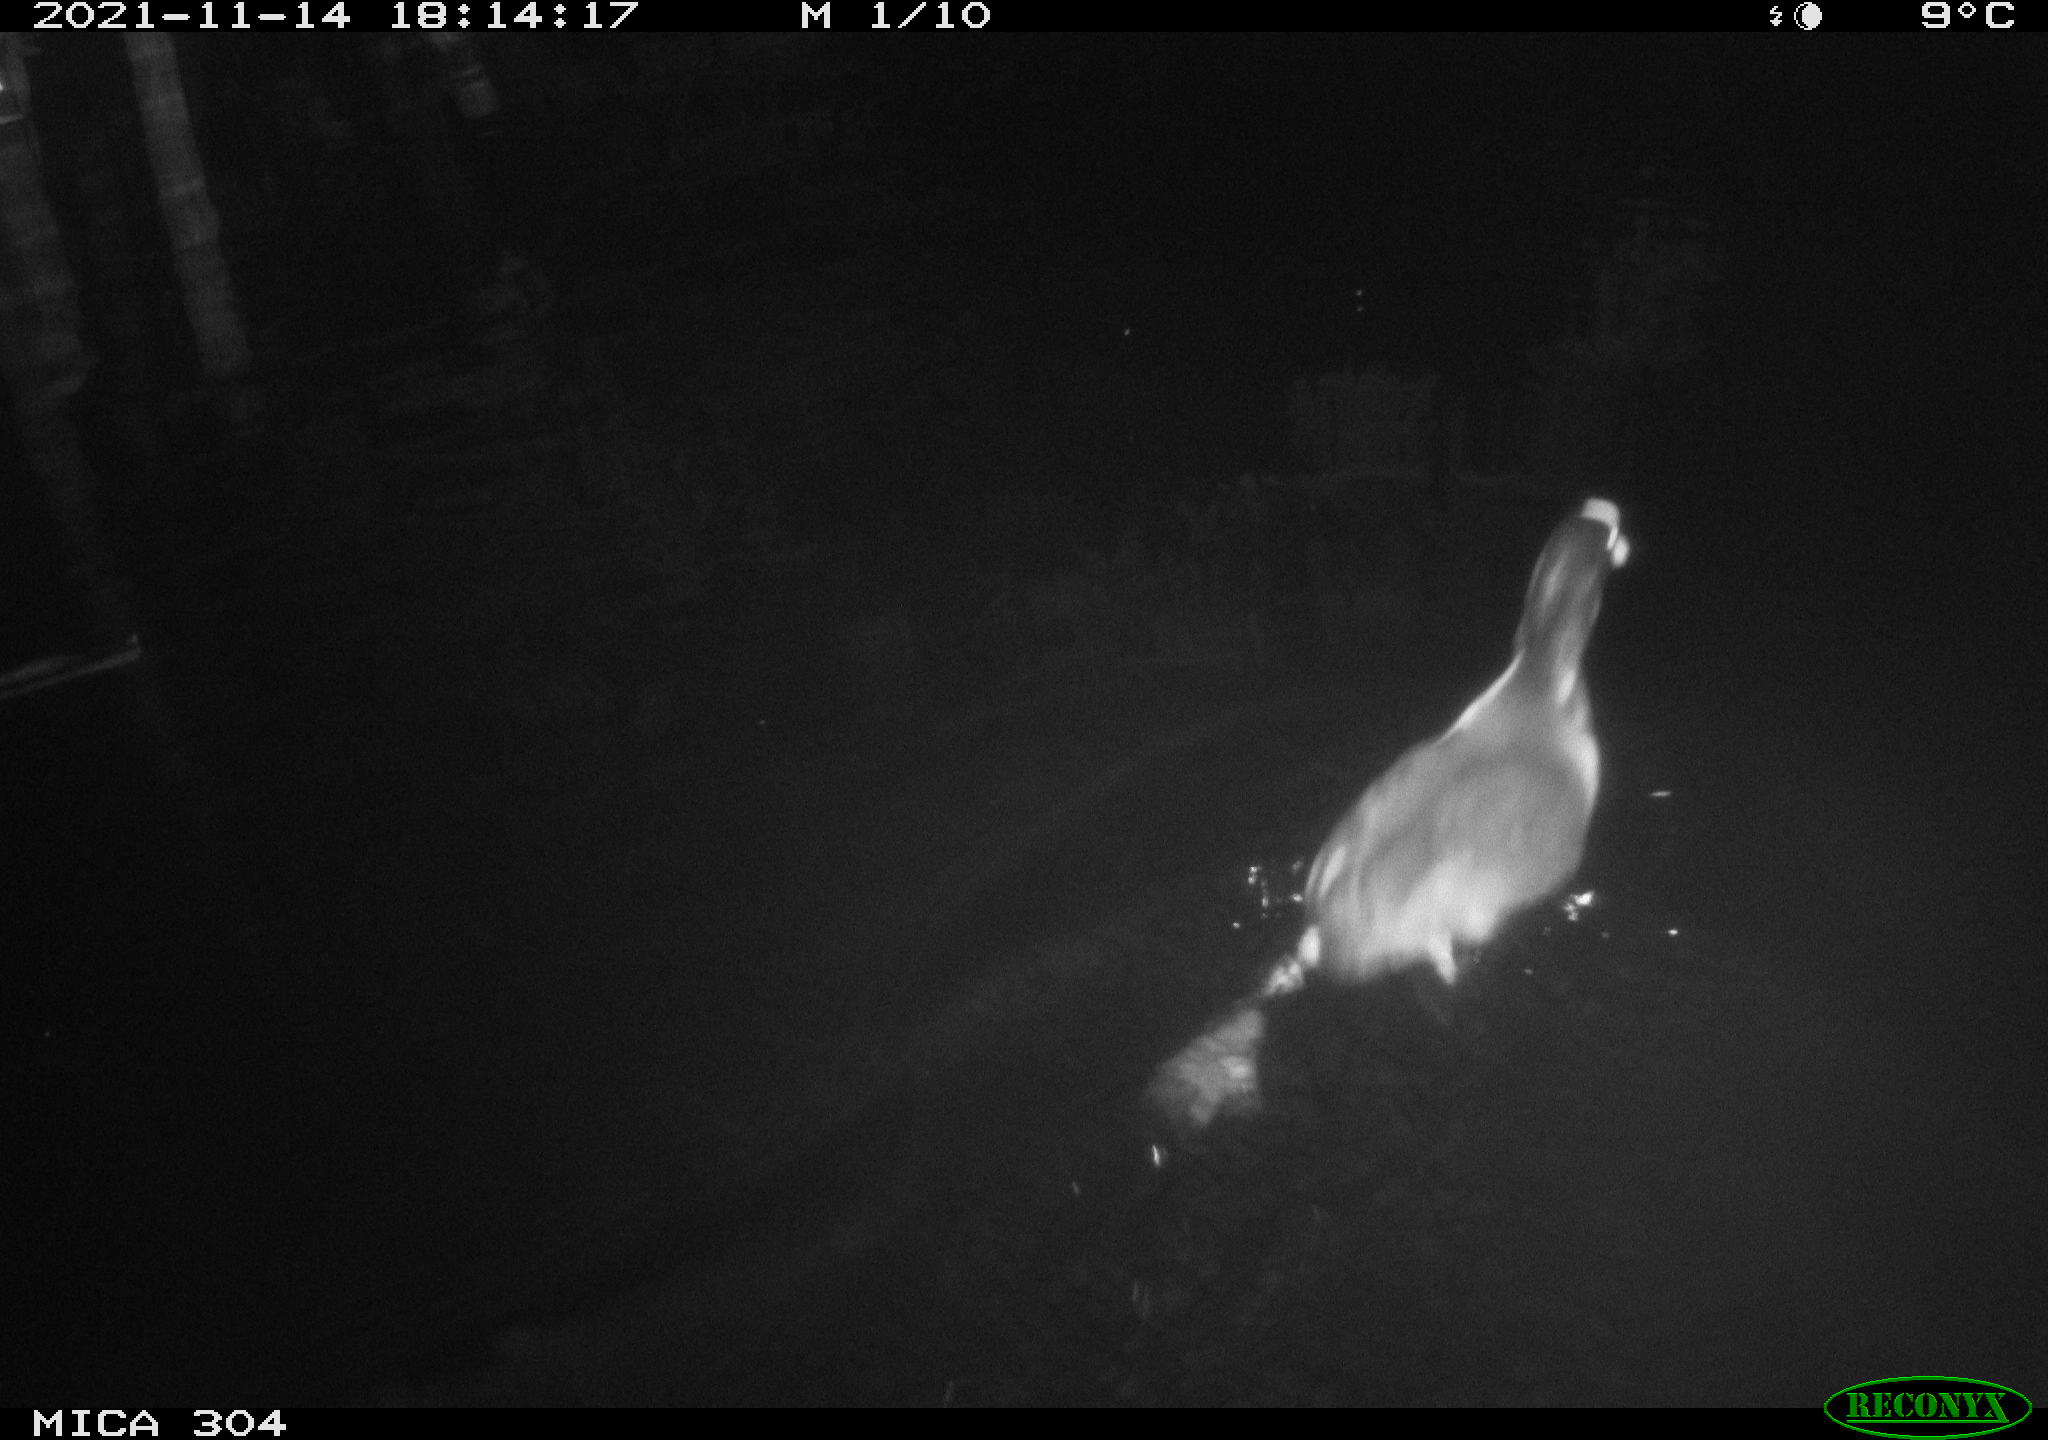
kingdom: Animalia
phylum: Chordata
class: Aves
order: Gruiformes
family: Rallidae
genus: Fulica
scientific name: Fulica atra
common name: Eurasian coot
